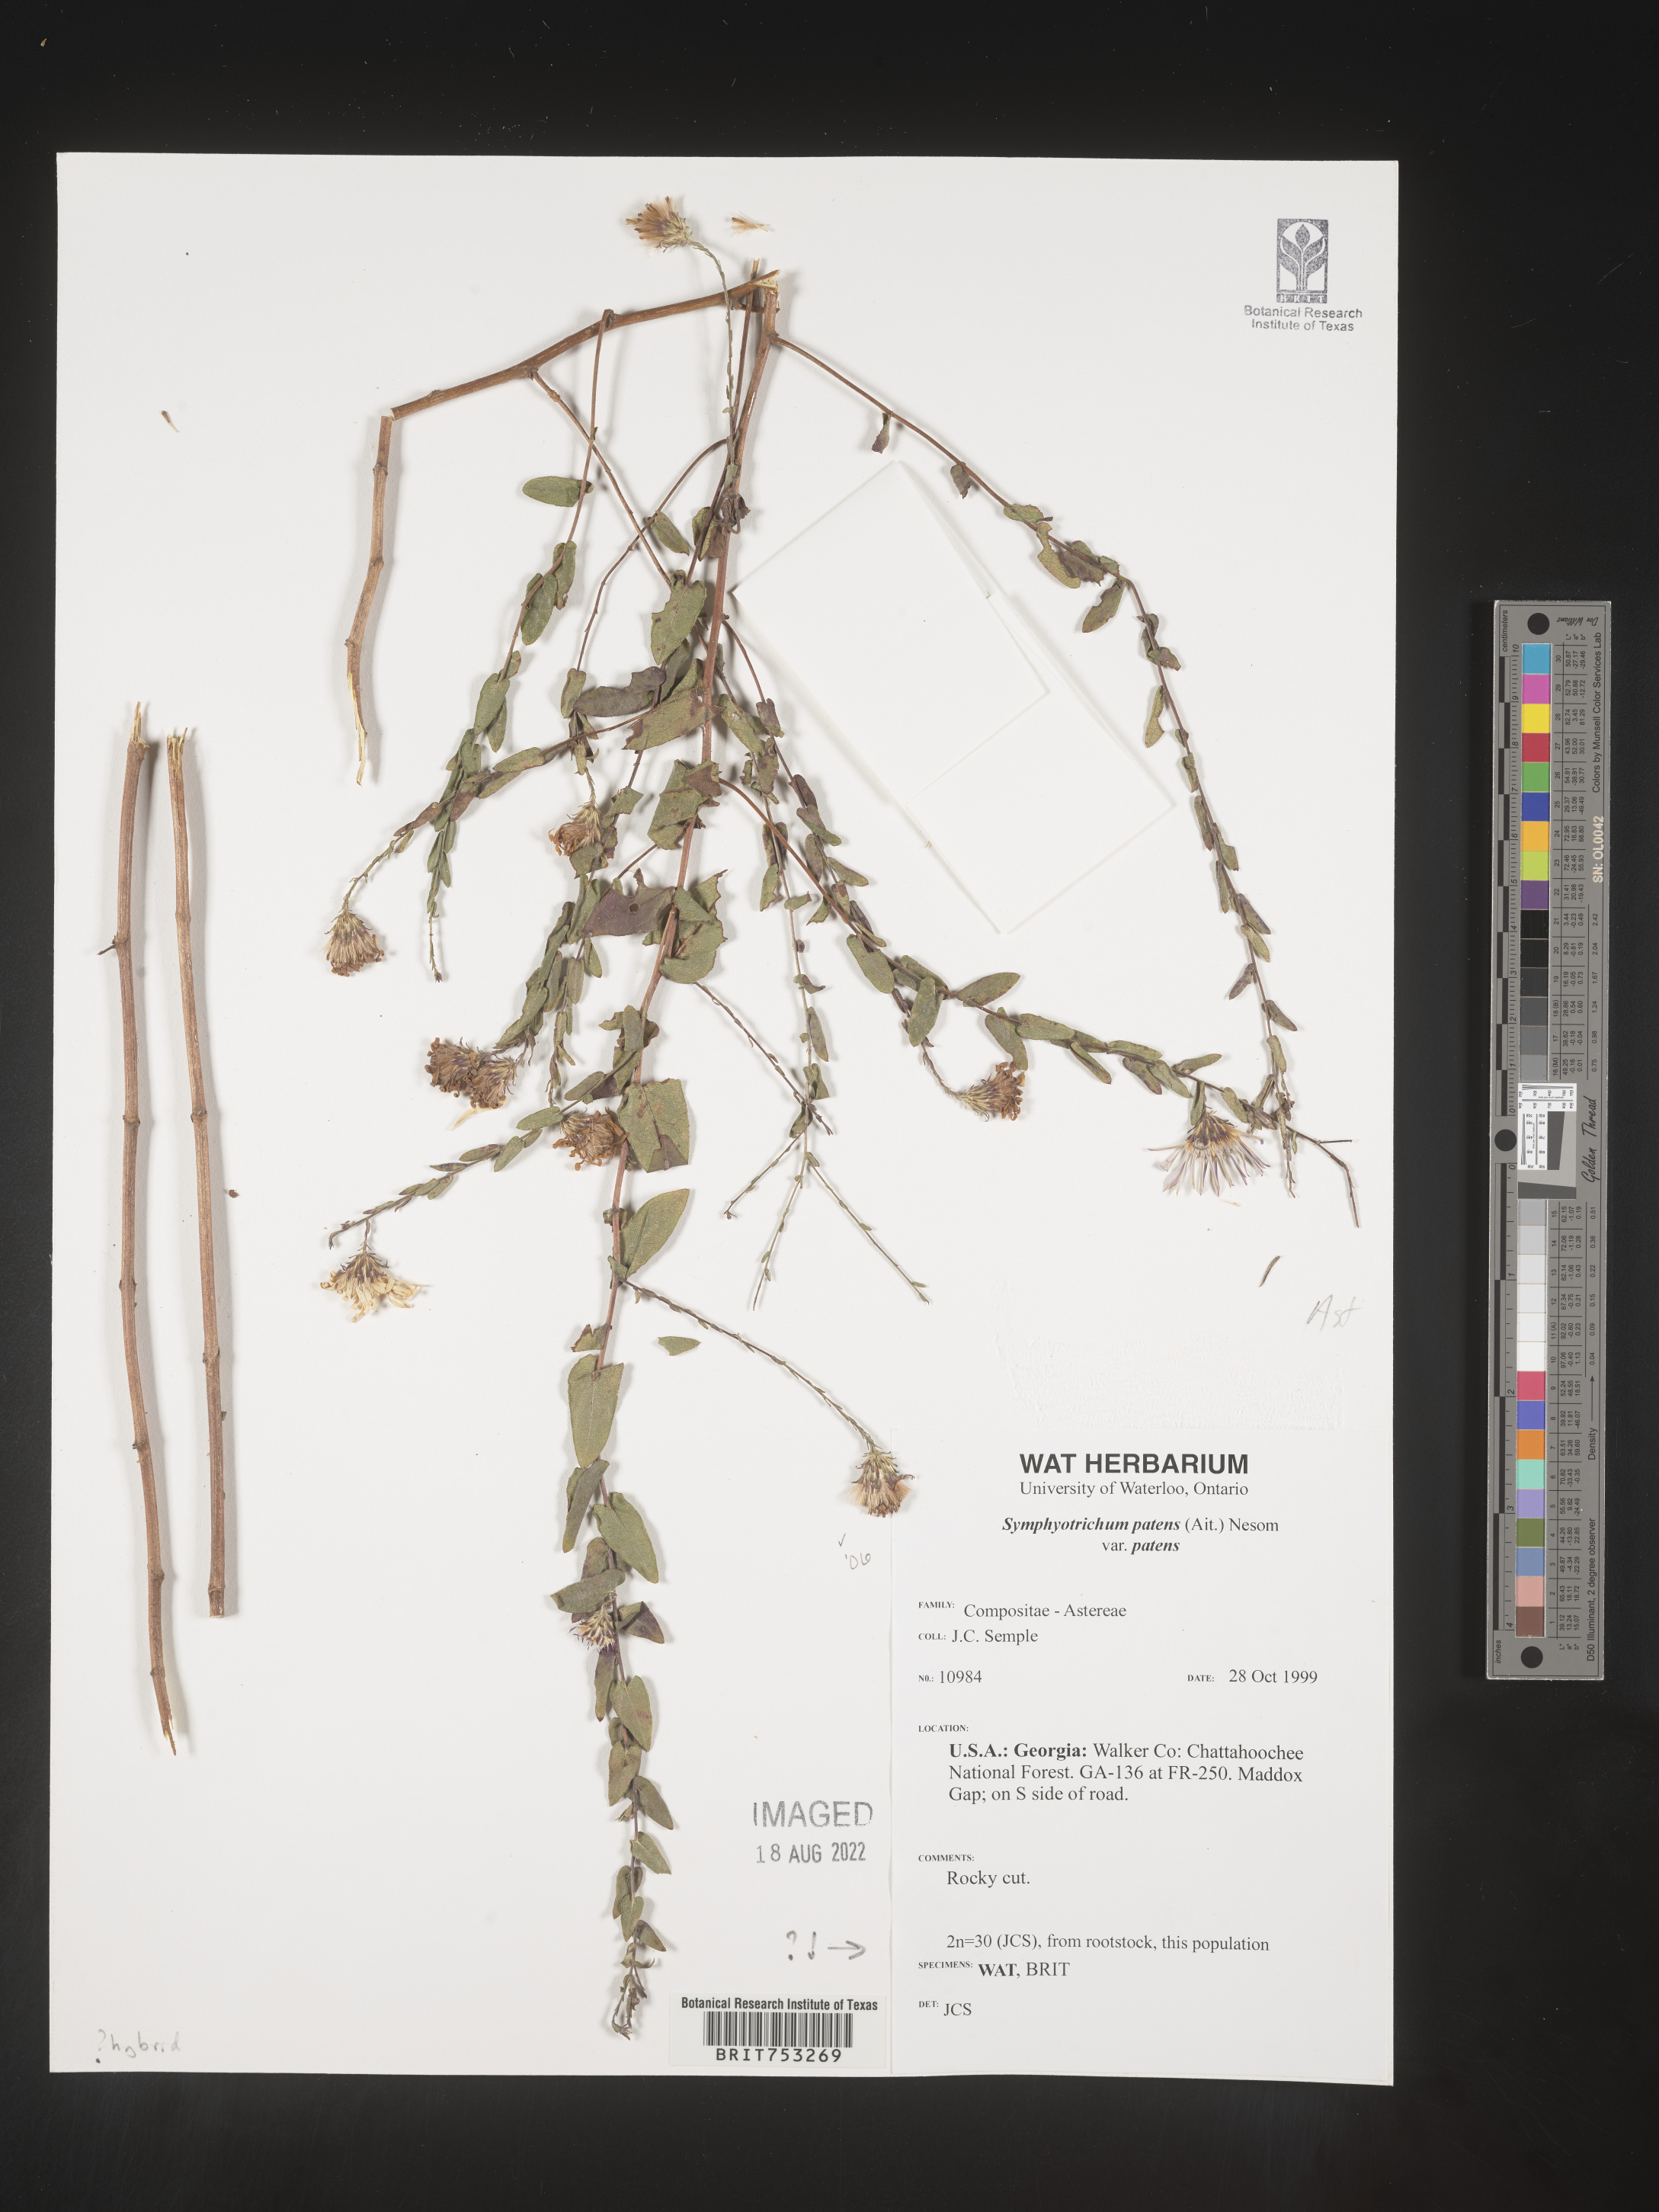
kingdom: Plantae
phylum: Tracheophyta
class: Magnoliopsida
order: Asterales
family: Asteraceae
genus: Symphyotrichum
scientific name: Symphyotrichum patens
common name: Late purple aster
